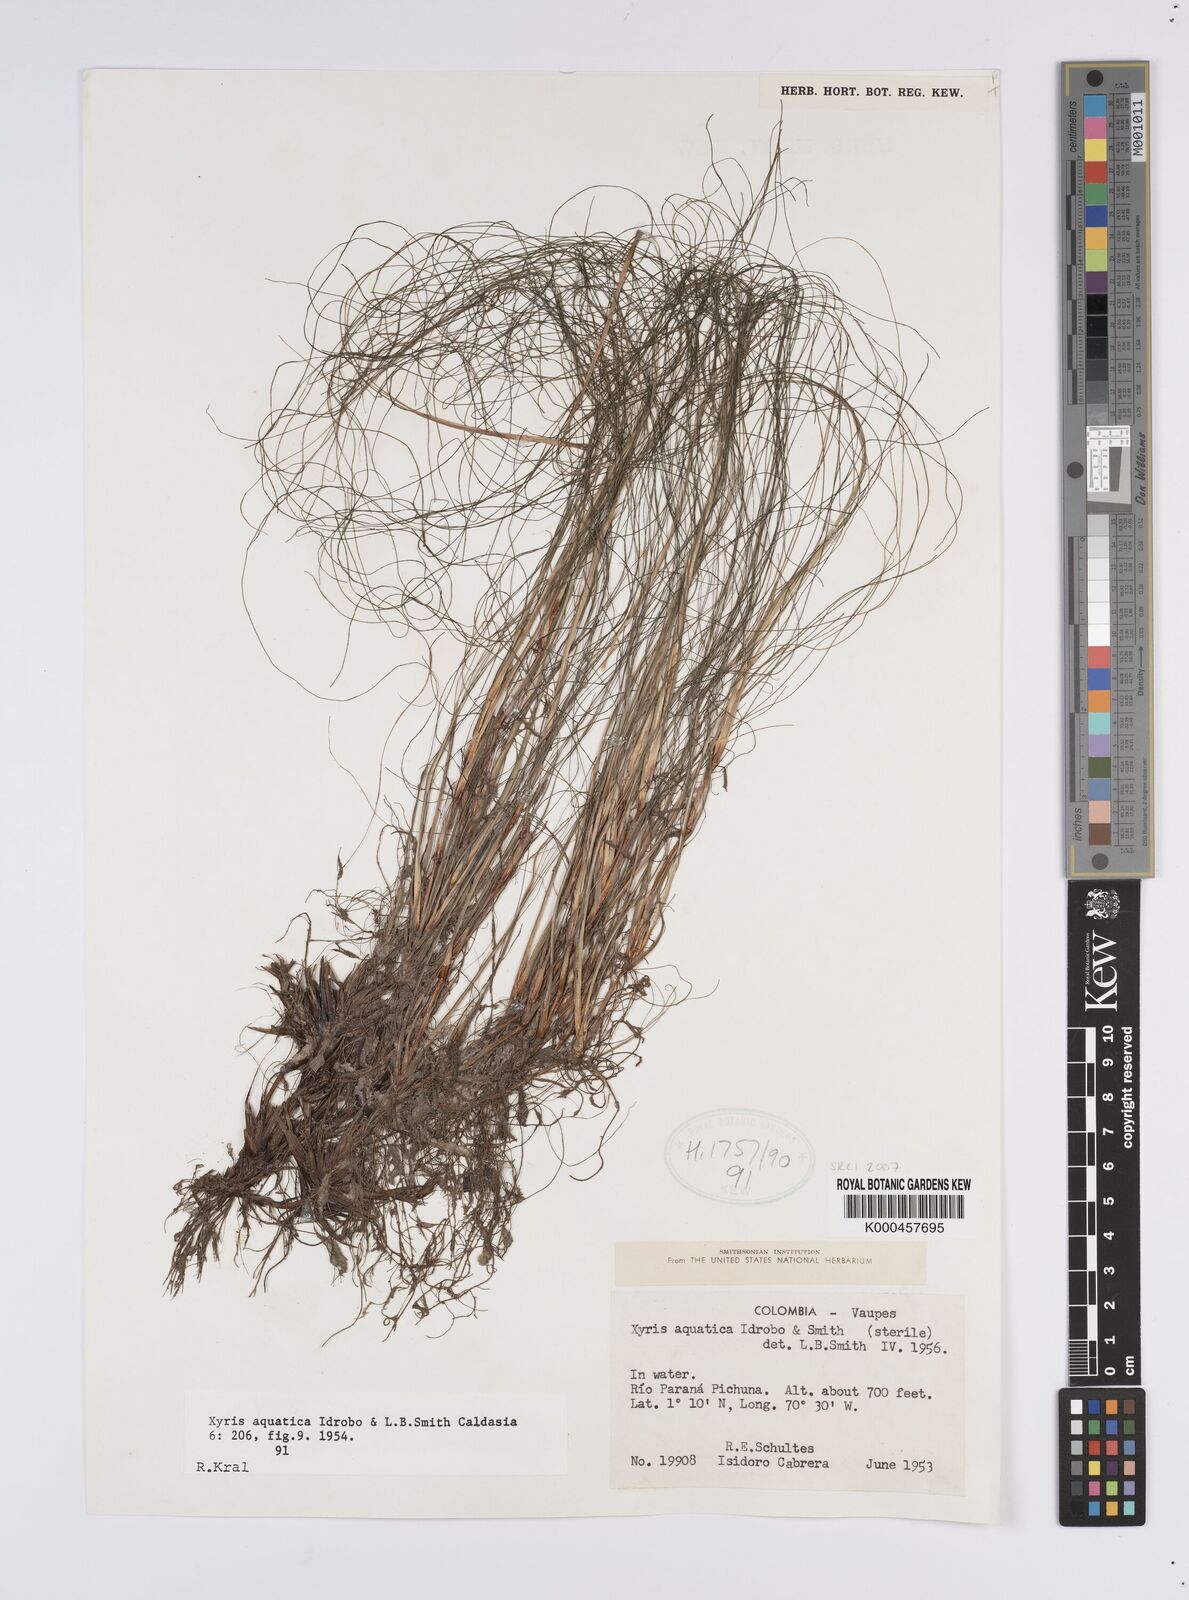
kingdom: Plantae
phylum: Tracheophyta
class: Liliopsida
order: Poales
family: Xyridaceae
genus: Xyris
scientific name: Xyris aquatica
